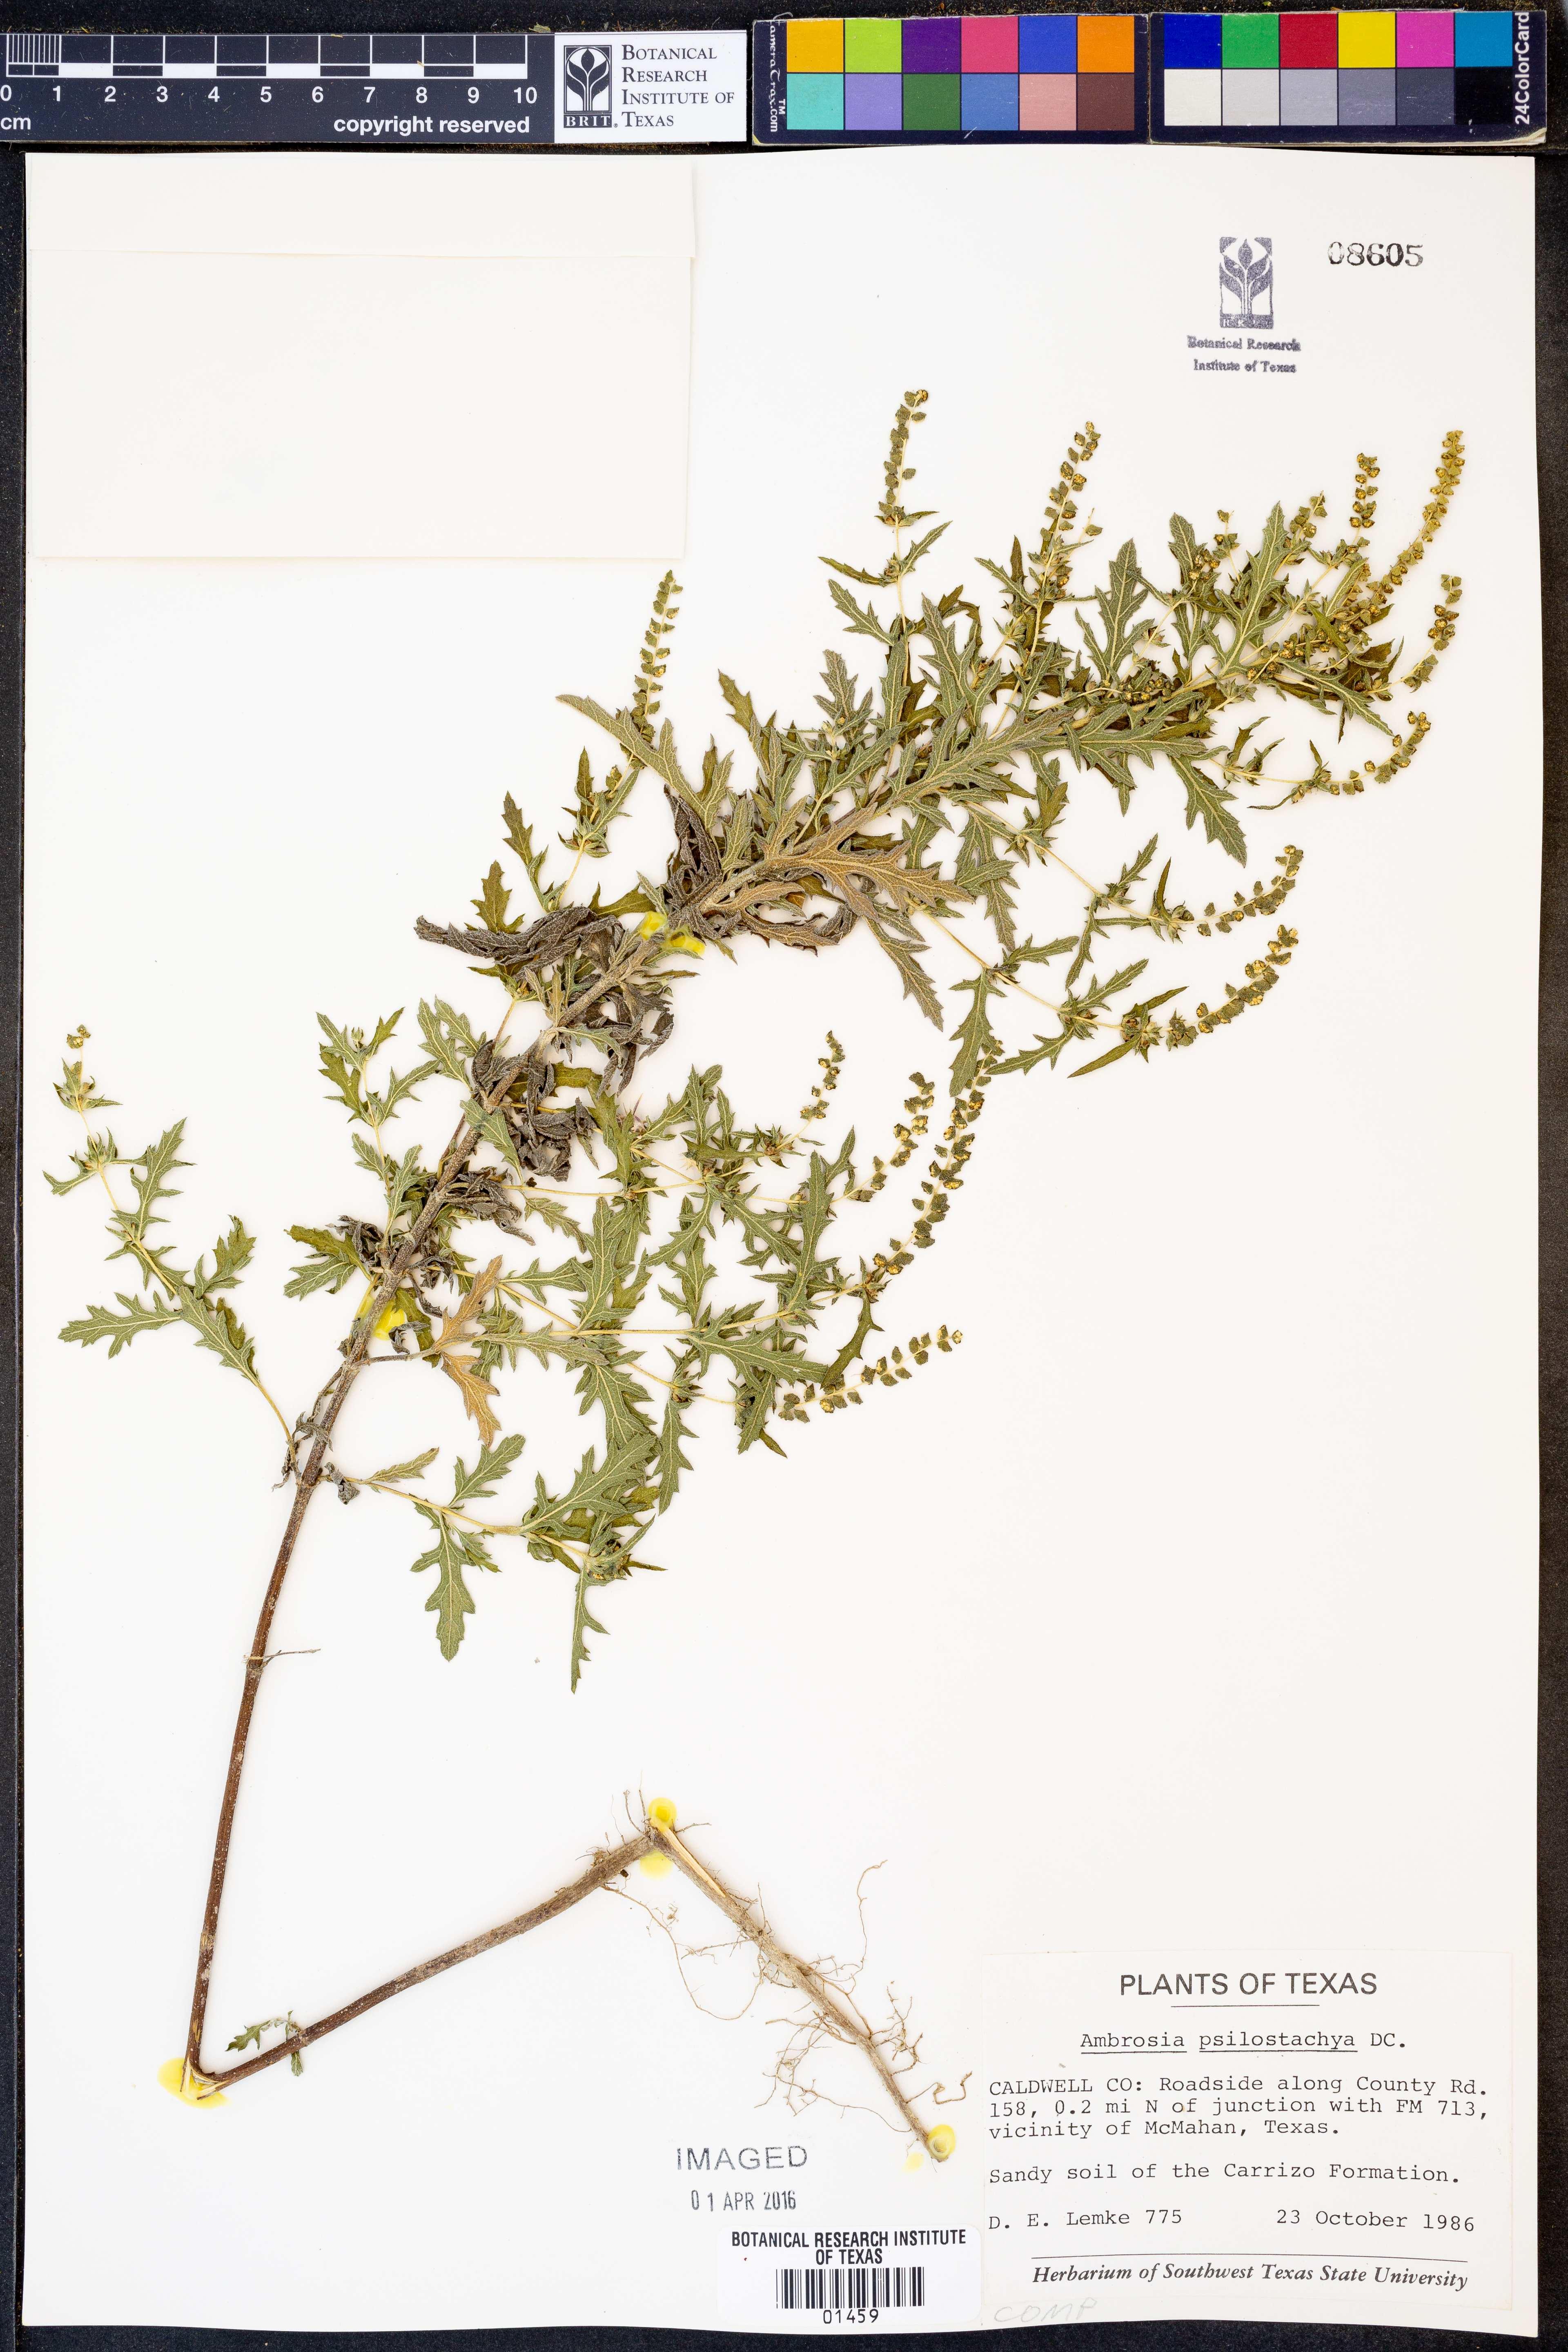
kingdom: Plantae
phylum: Tracheophyta
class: Magnoliopsida
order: Asterales
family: Asteraceae
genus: Ambrosia
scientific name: Ambrosia psilostachya
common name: Perennial ragweed
